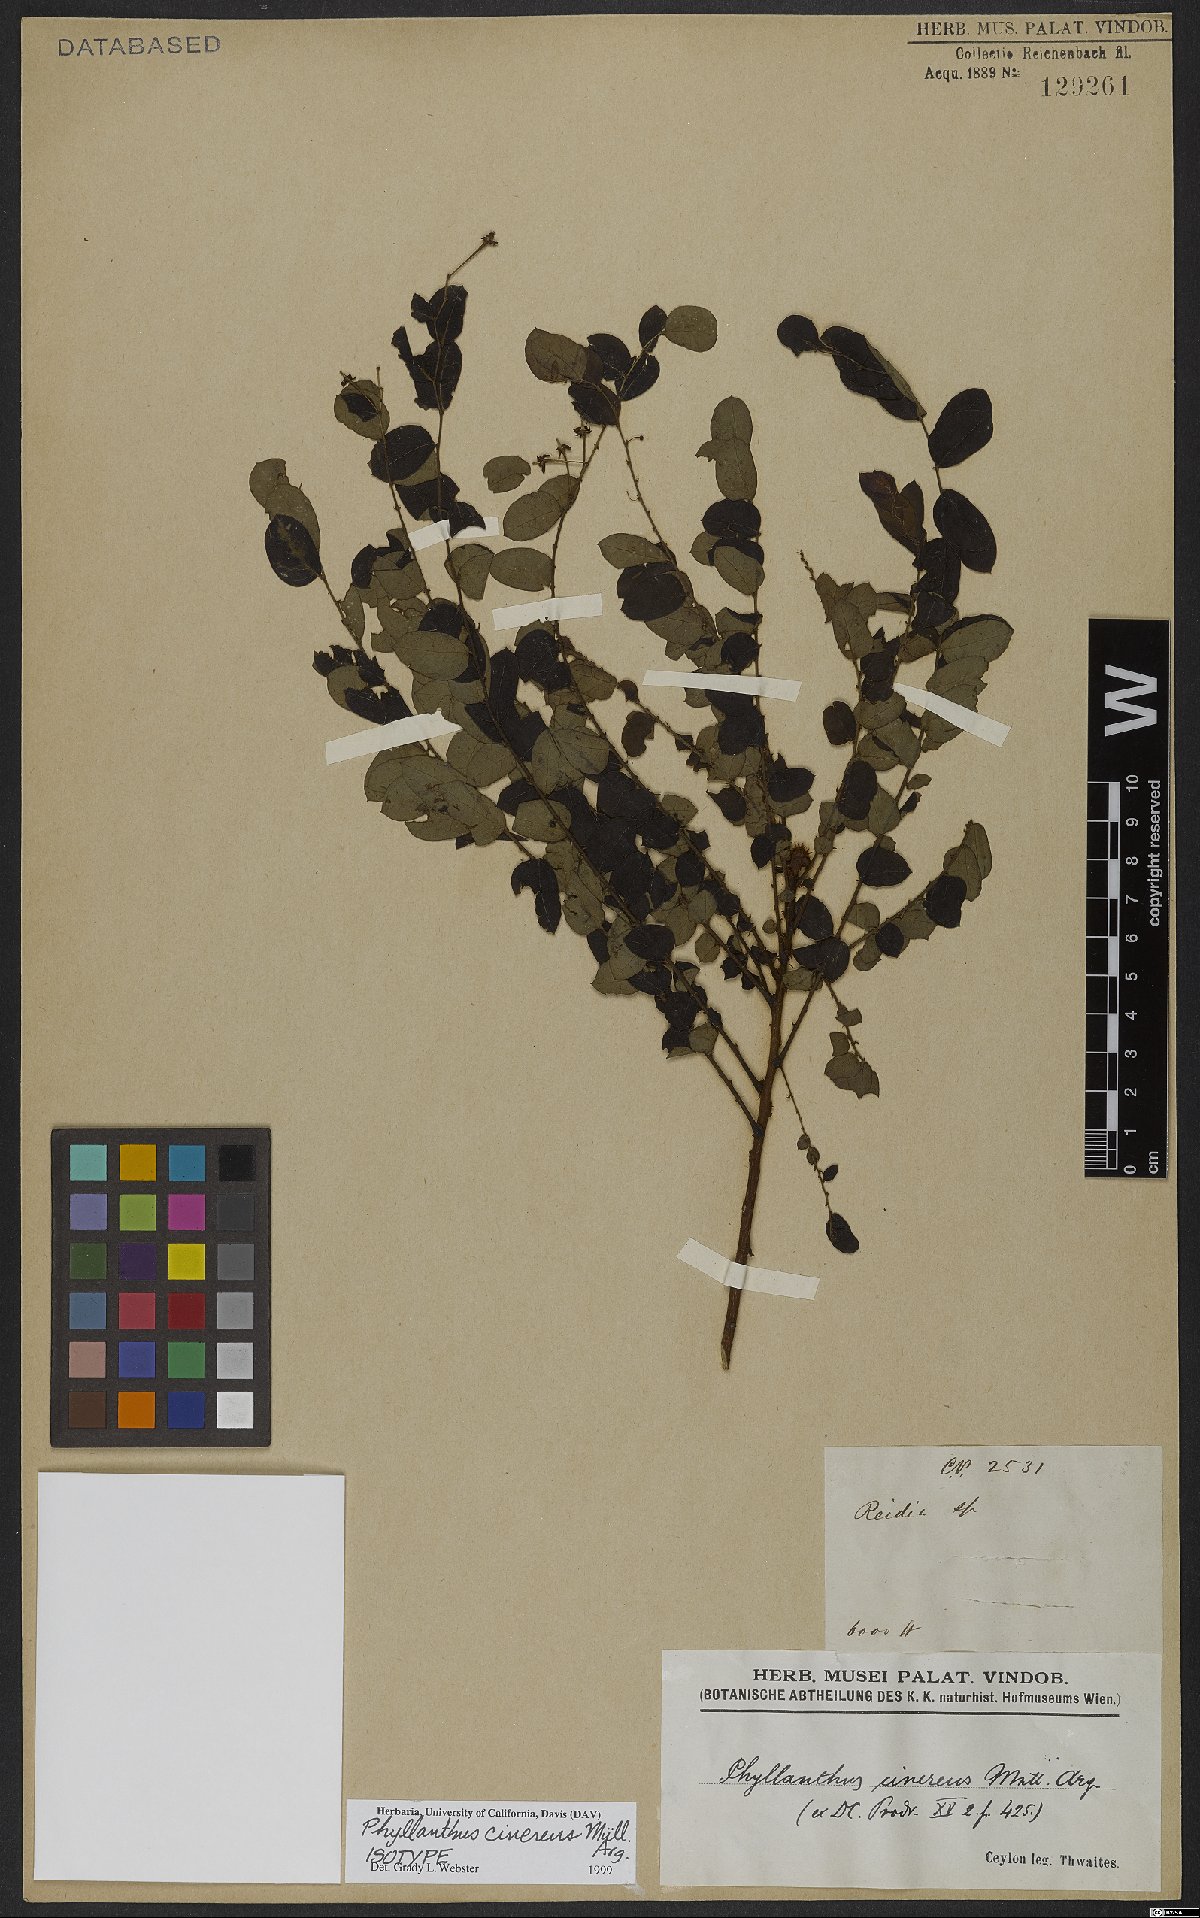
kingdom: Plantae
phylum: Tracheophyta
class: Magnoliopsida
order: Malpighiales
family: Phyllanthaceae
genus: Phyllanthus
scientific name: Phyllanthus cinereus
